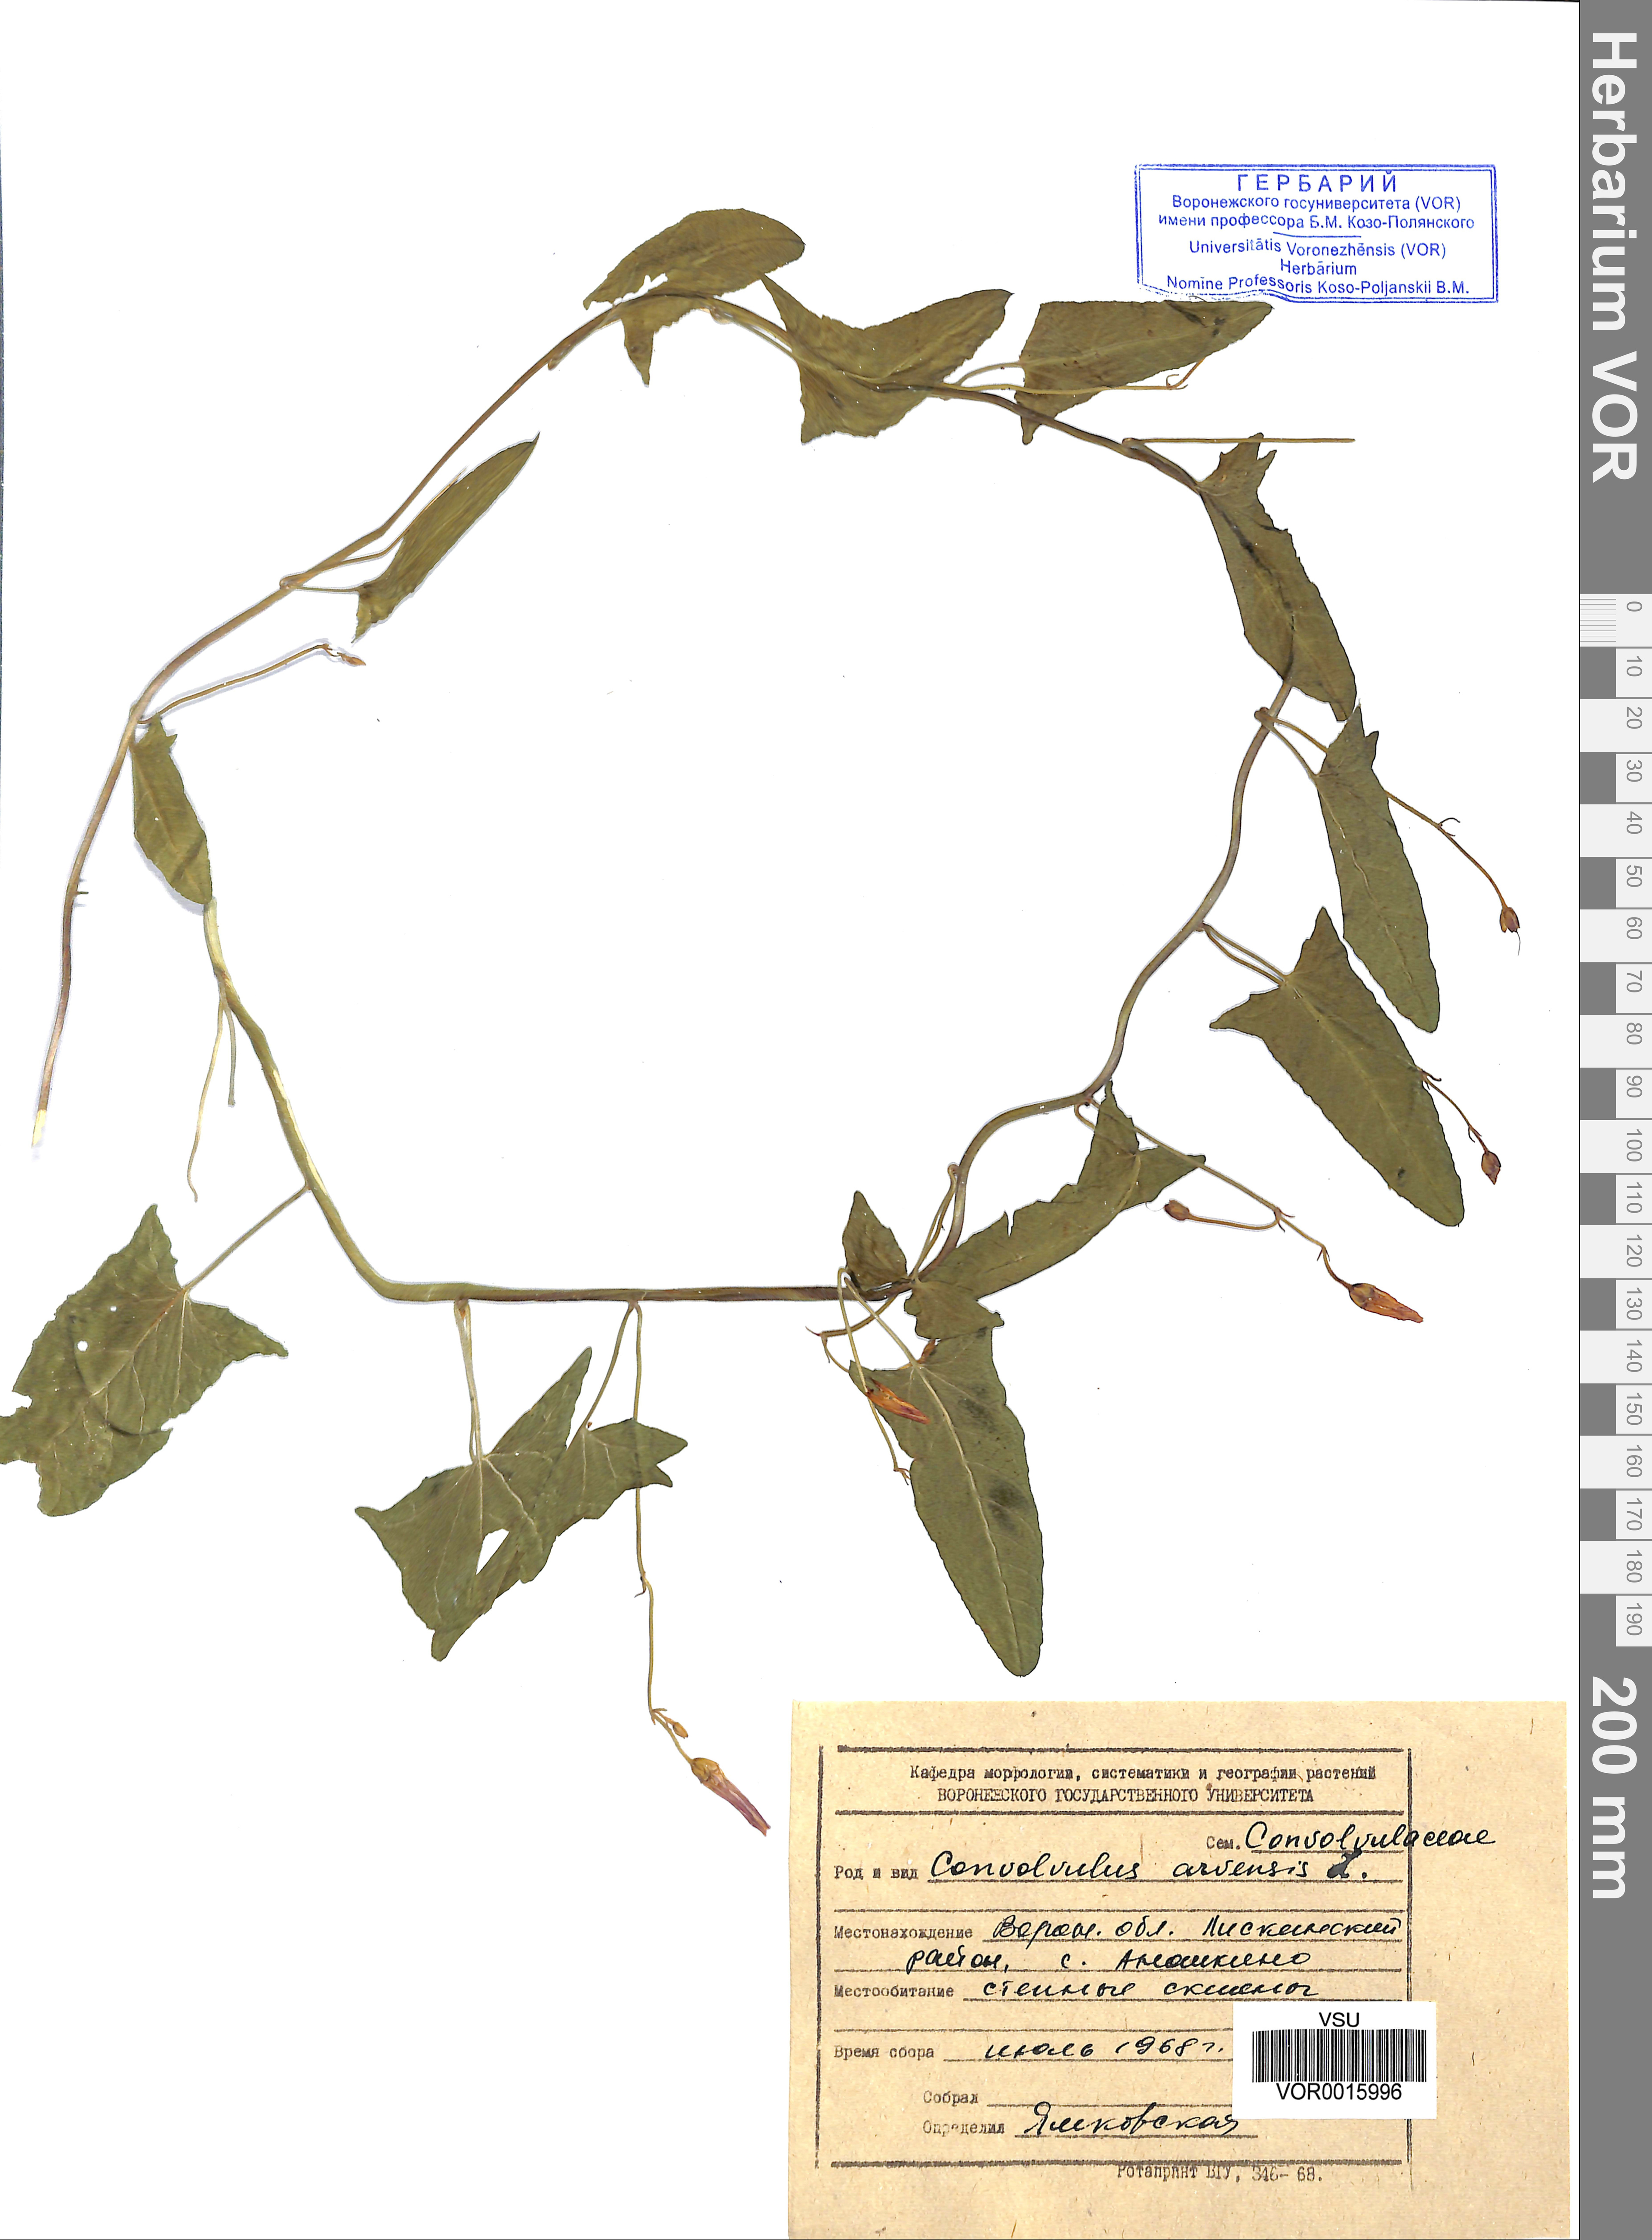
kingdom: Plantae
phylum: Tracheophyta
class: Magnoliopsida
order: Solanales
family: Convolvulaceae
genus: Convolvulus
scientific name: Convolvulus arvensis
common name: Field bindweed
